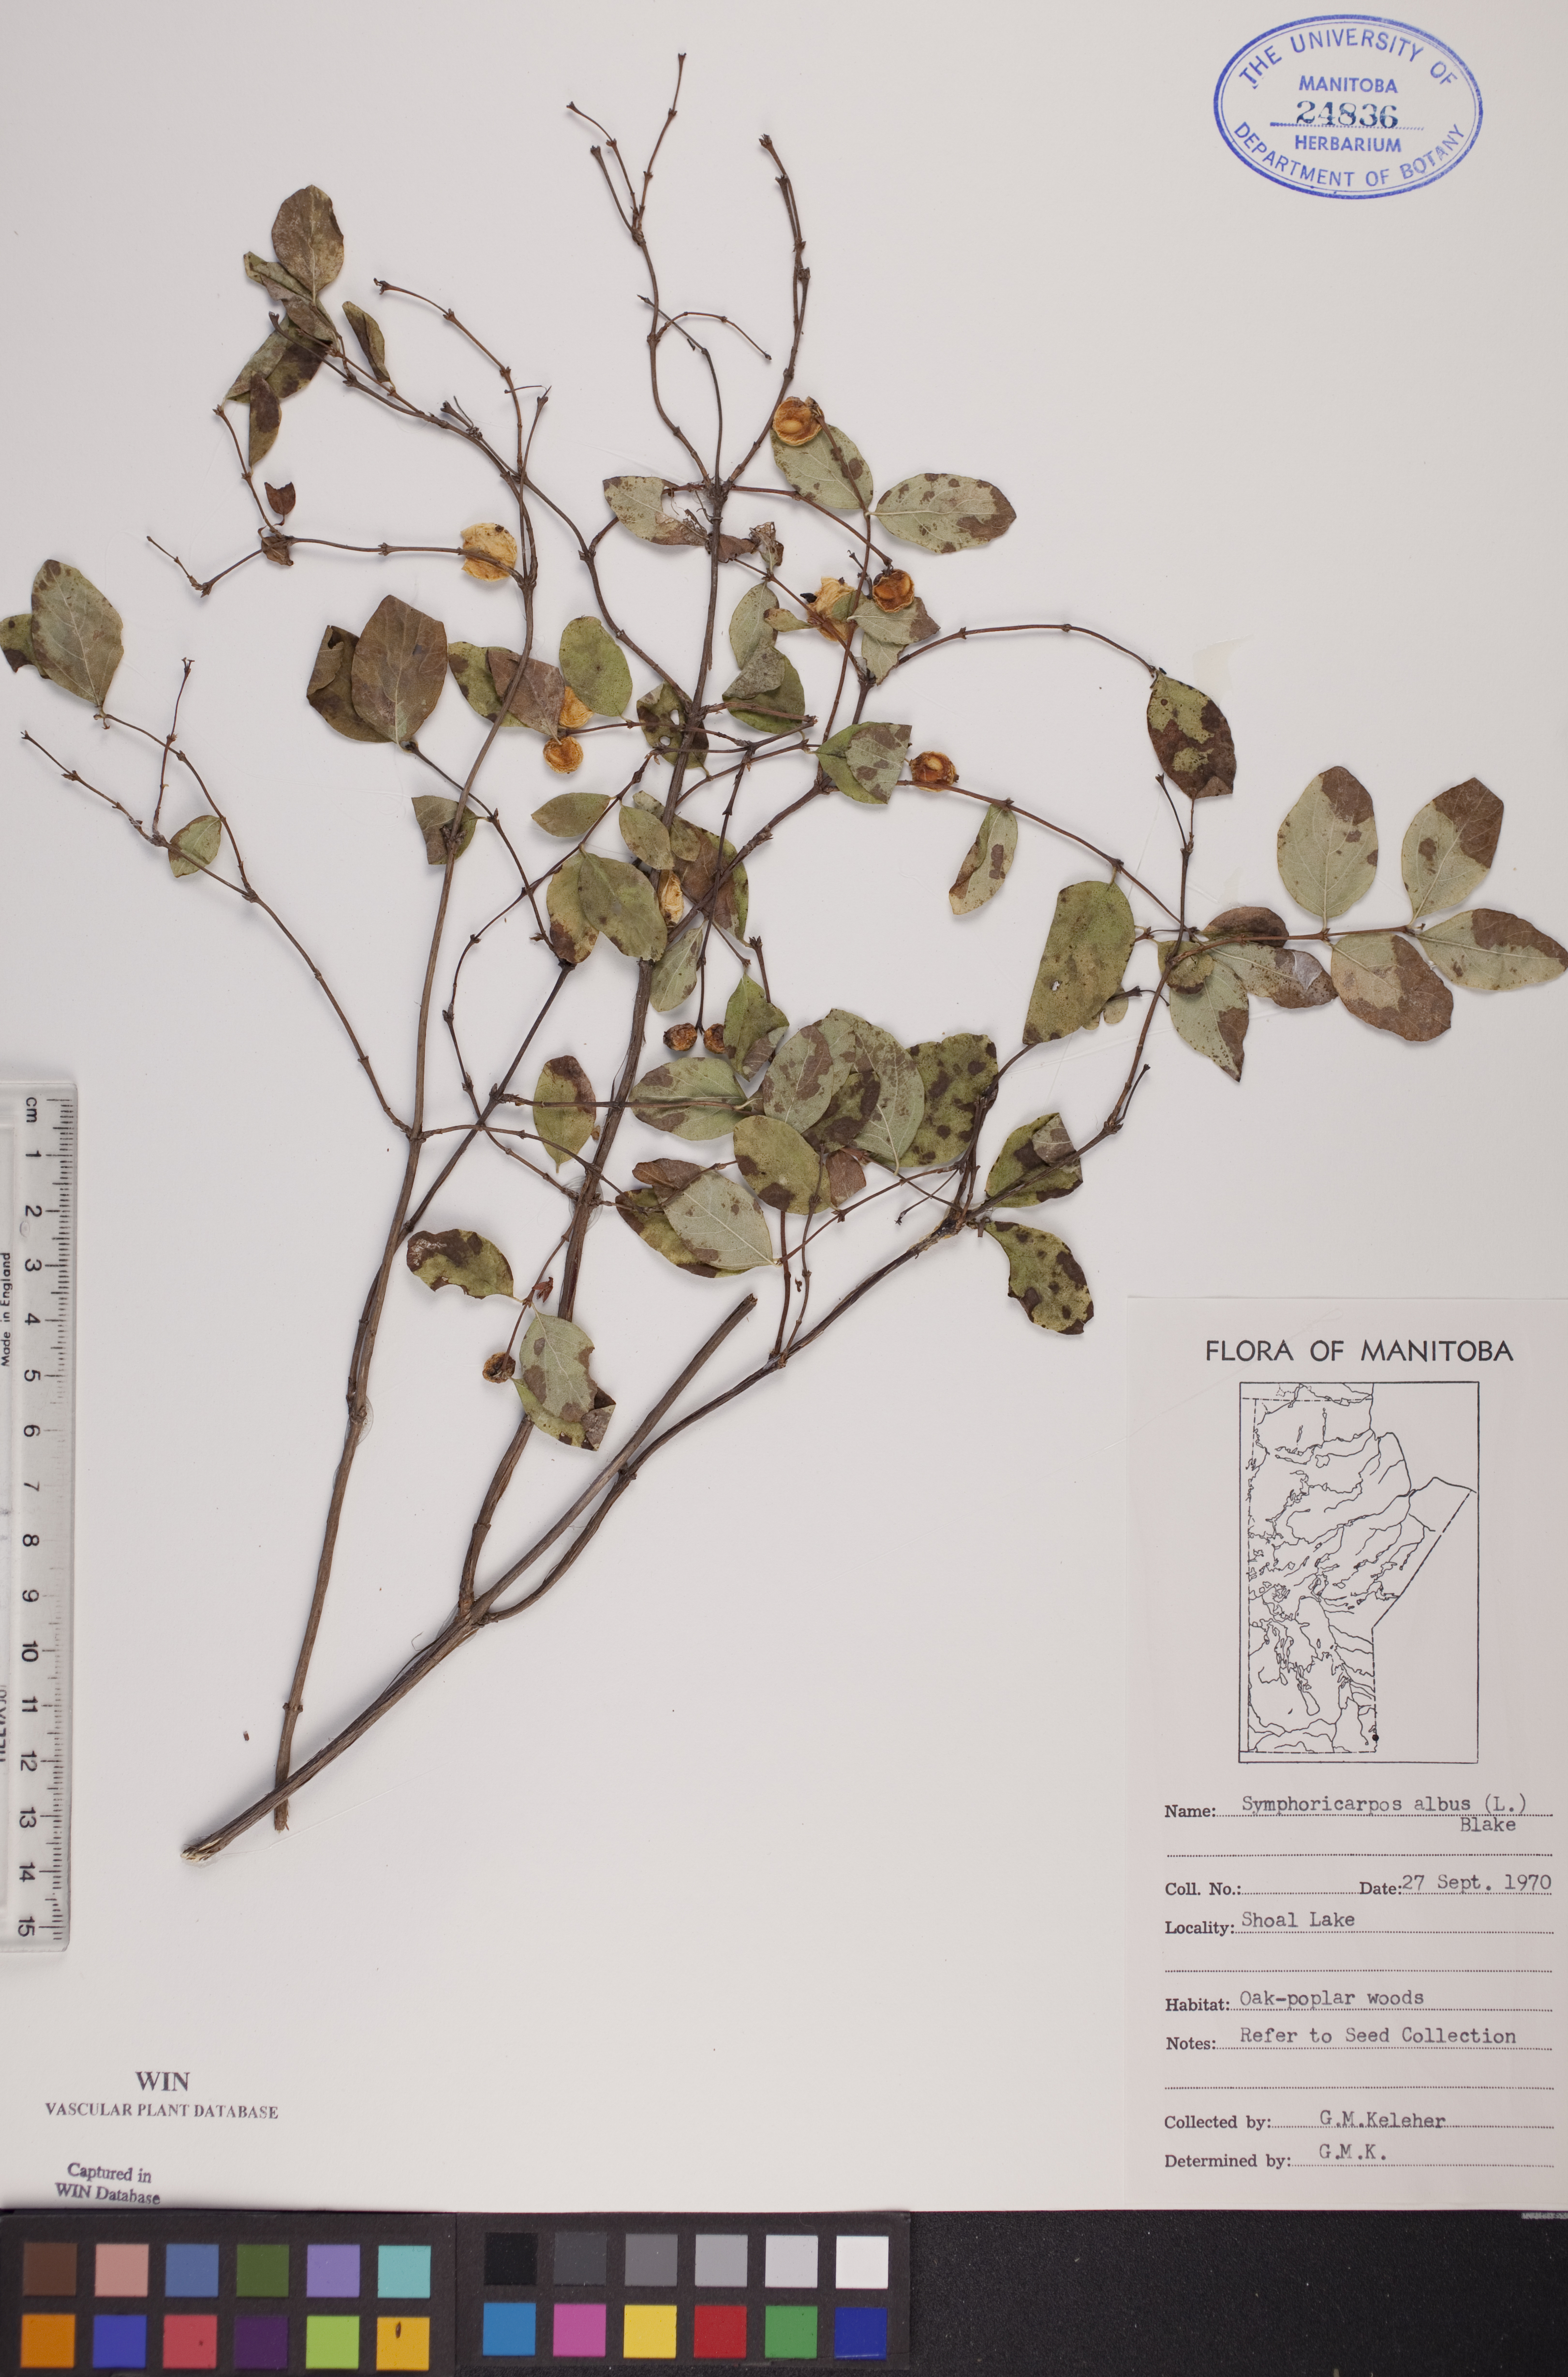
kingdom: Plantae
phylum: Tracheophyta
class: Magnoliopsida
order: Dipsacales
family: Caprifoliaceae
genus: Symphoricarpos
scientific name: Symphoricarpos albus
